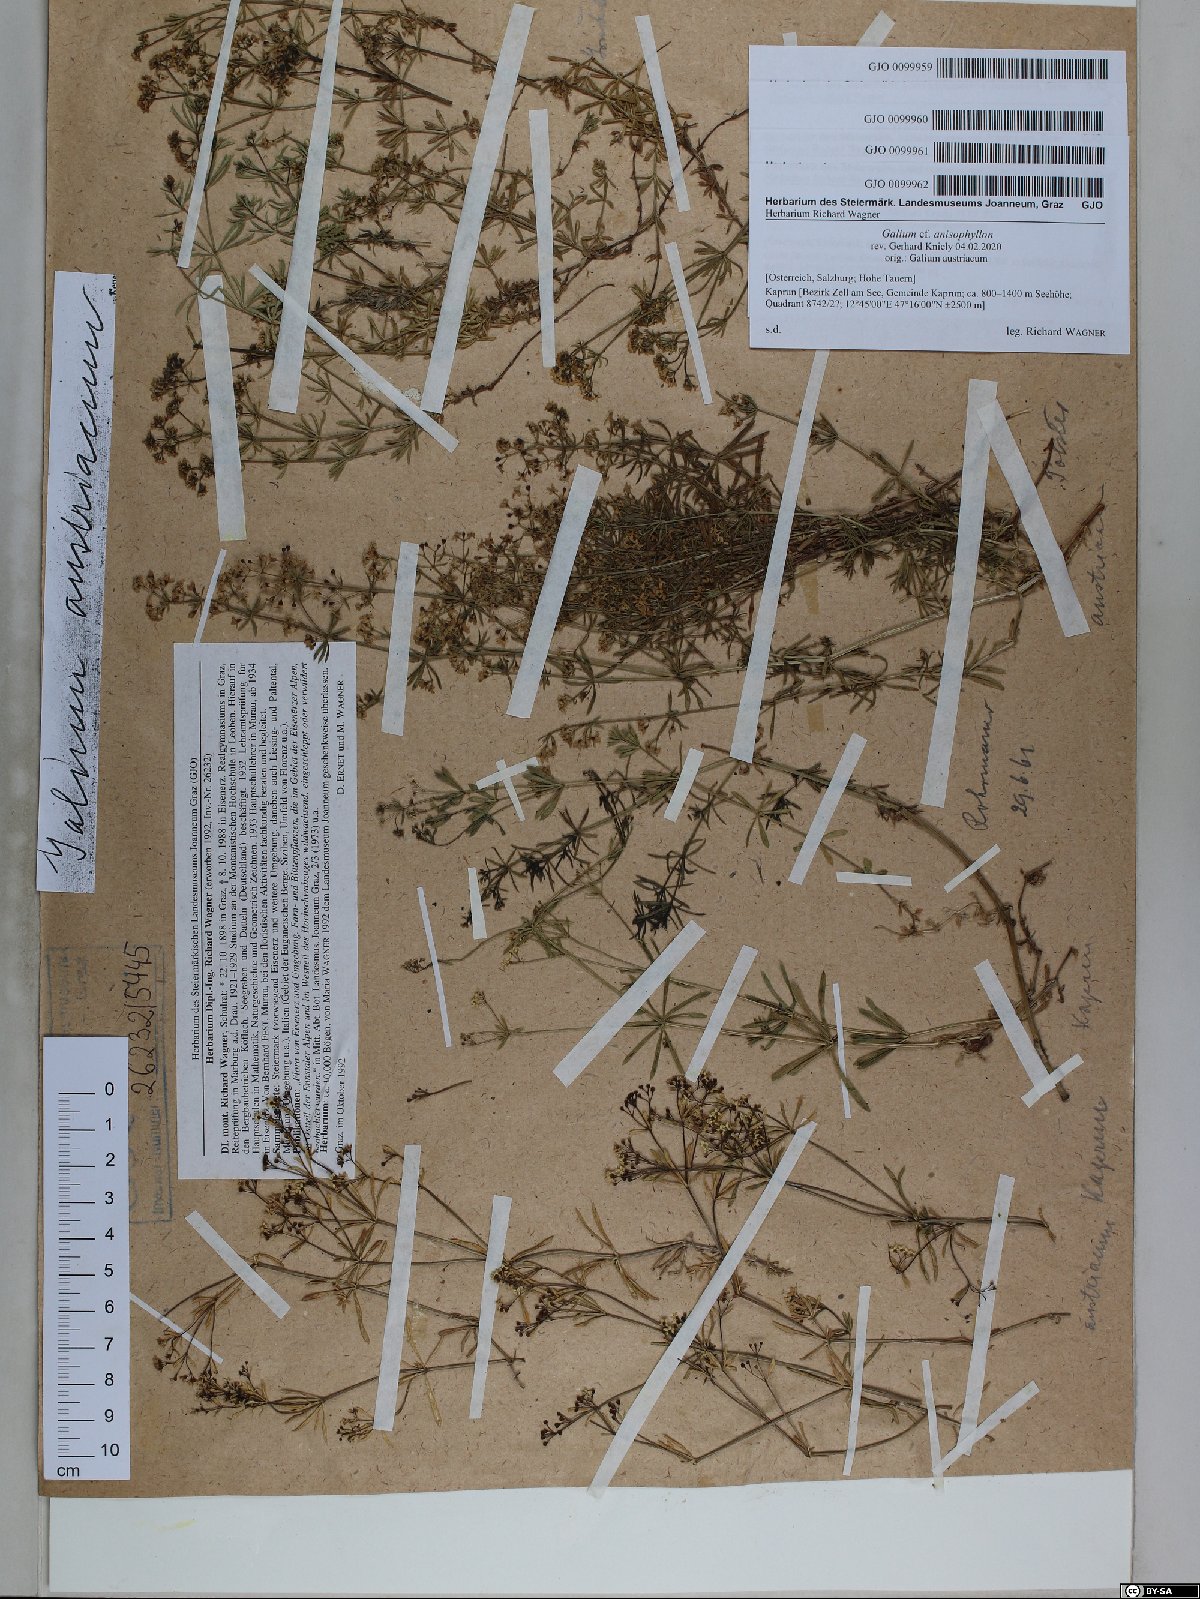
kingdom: Plantae
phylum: Tracheophyta
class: Magnoliopsida
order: Gentianales
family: Rubiaceae
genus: Galium
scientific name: Galium anisophyllon
